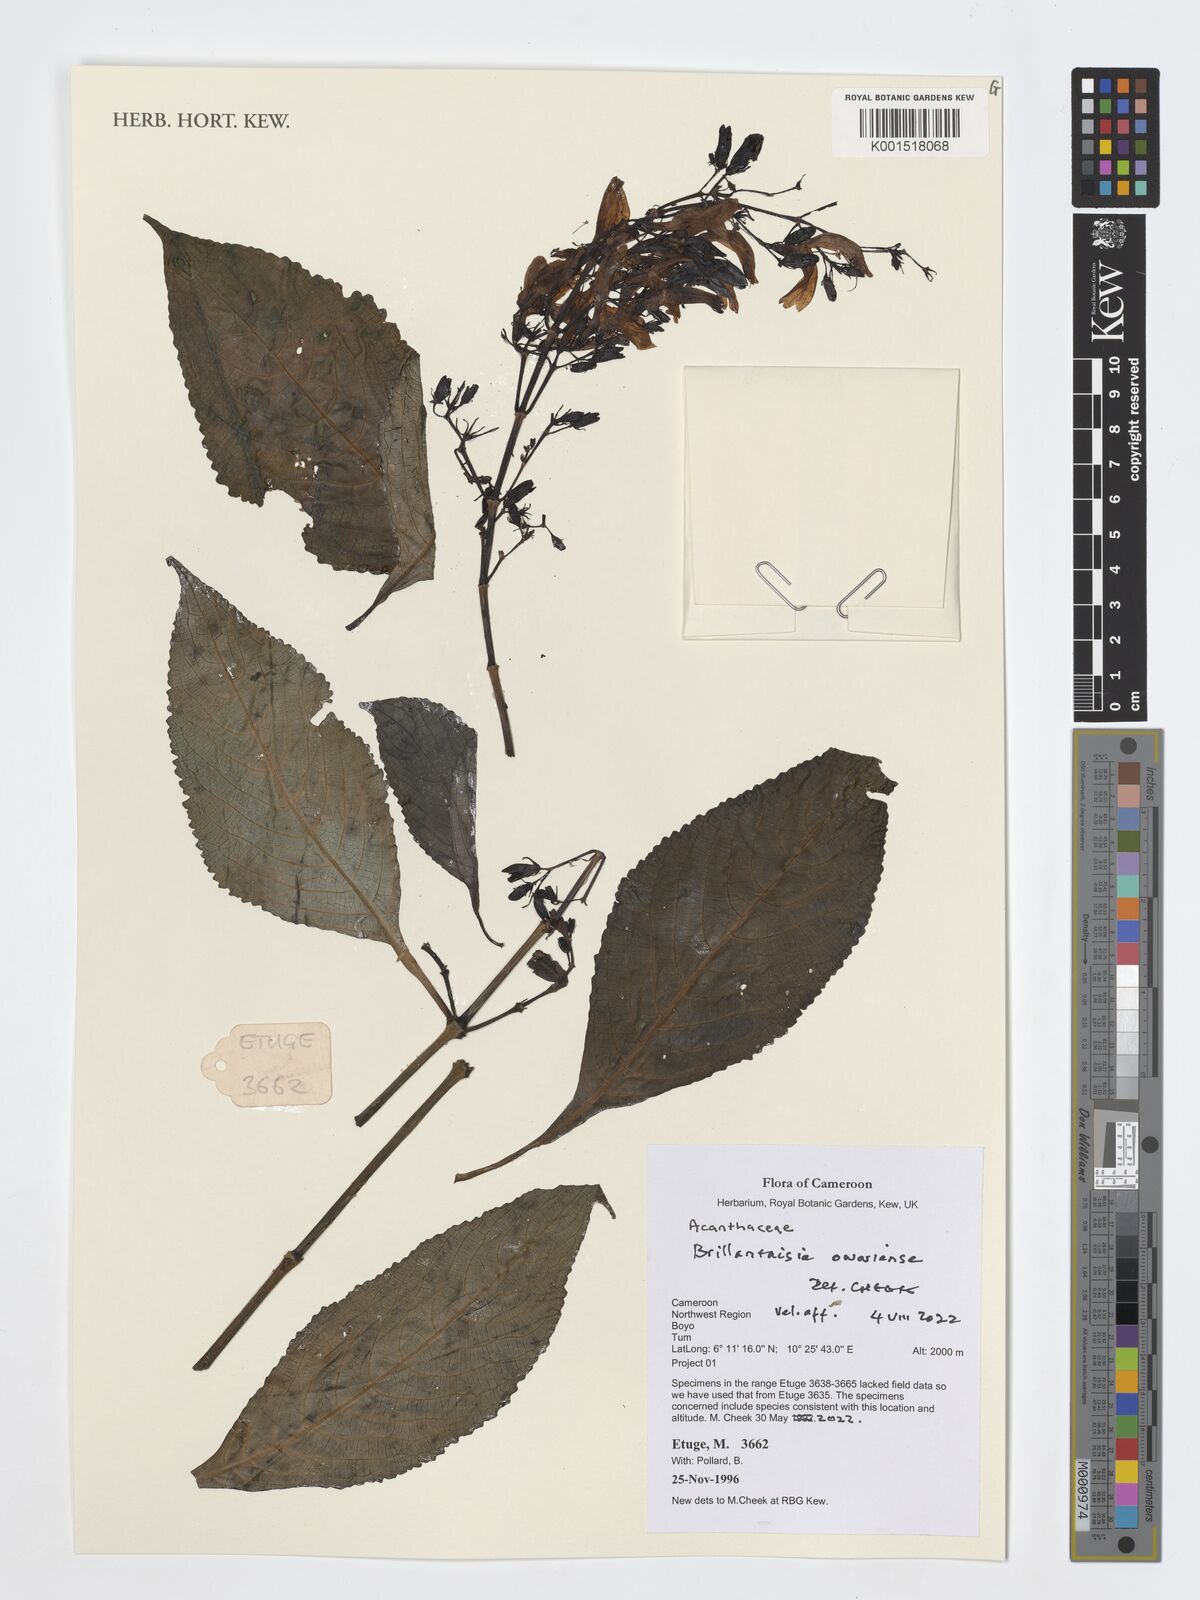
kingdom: Plantae
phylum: Tracheophyta
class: Magnoliopsida
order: Lamiales
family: Acanthaceae
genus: Brillantaisia
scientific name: Brillantaisia owariensis
